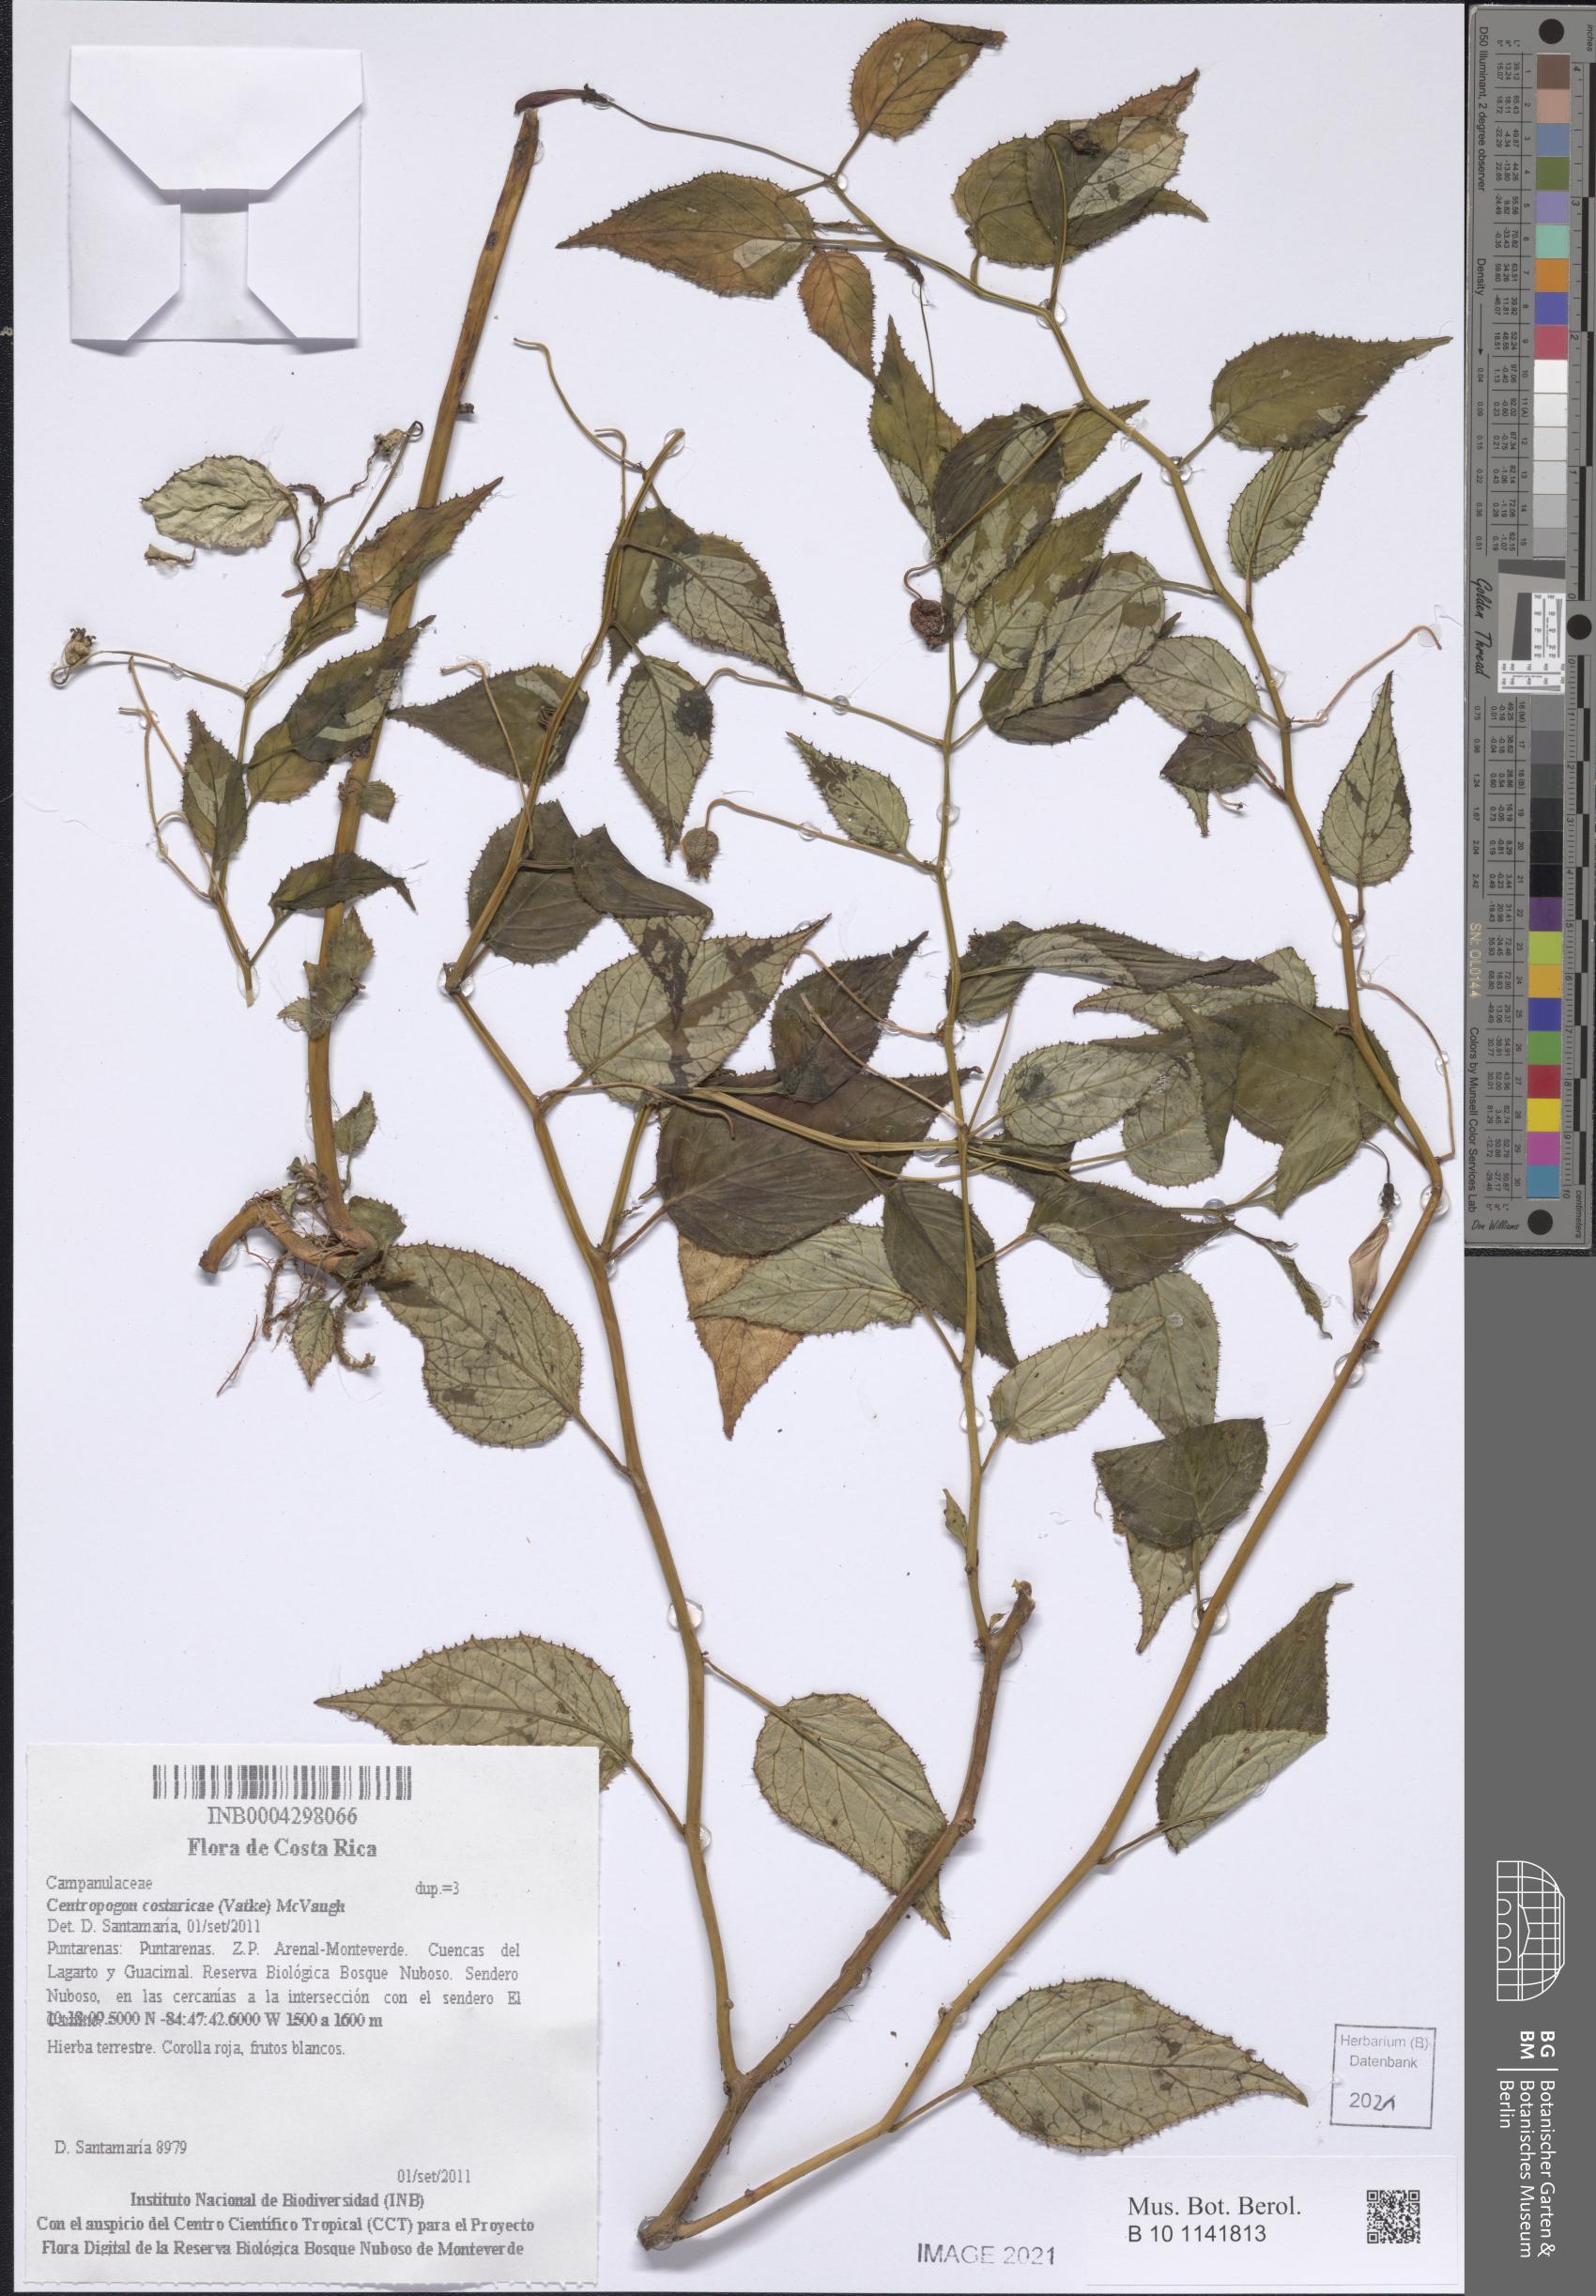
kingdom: Plantae
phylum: Tracheophyta
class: Magnoliopsida
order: Asterales
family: Campanulaceae
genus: Centropogon
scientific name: Centropogon costaricae
